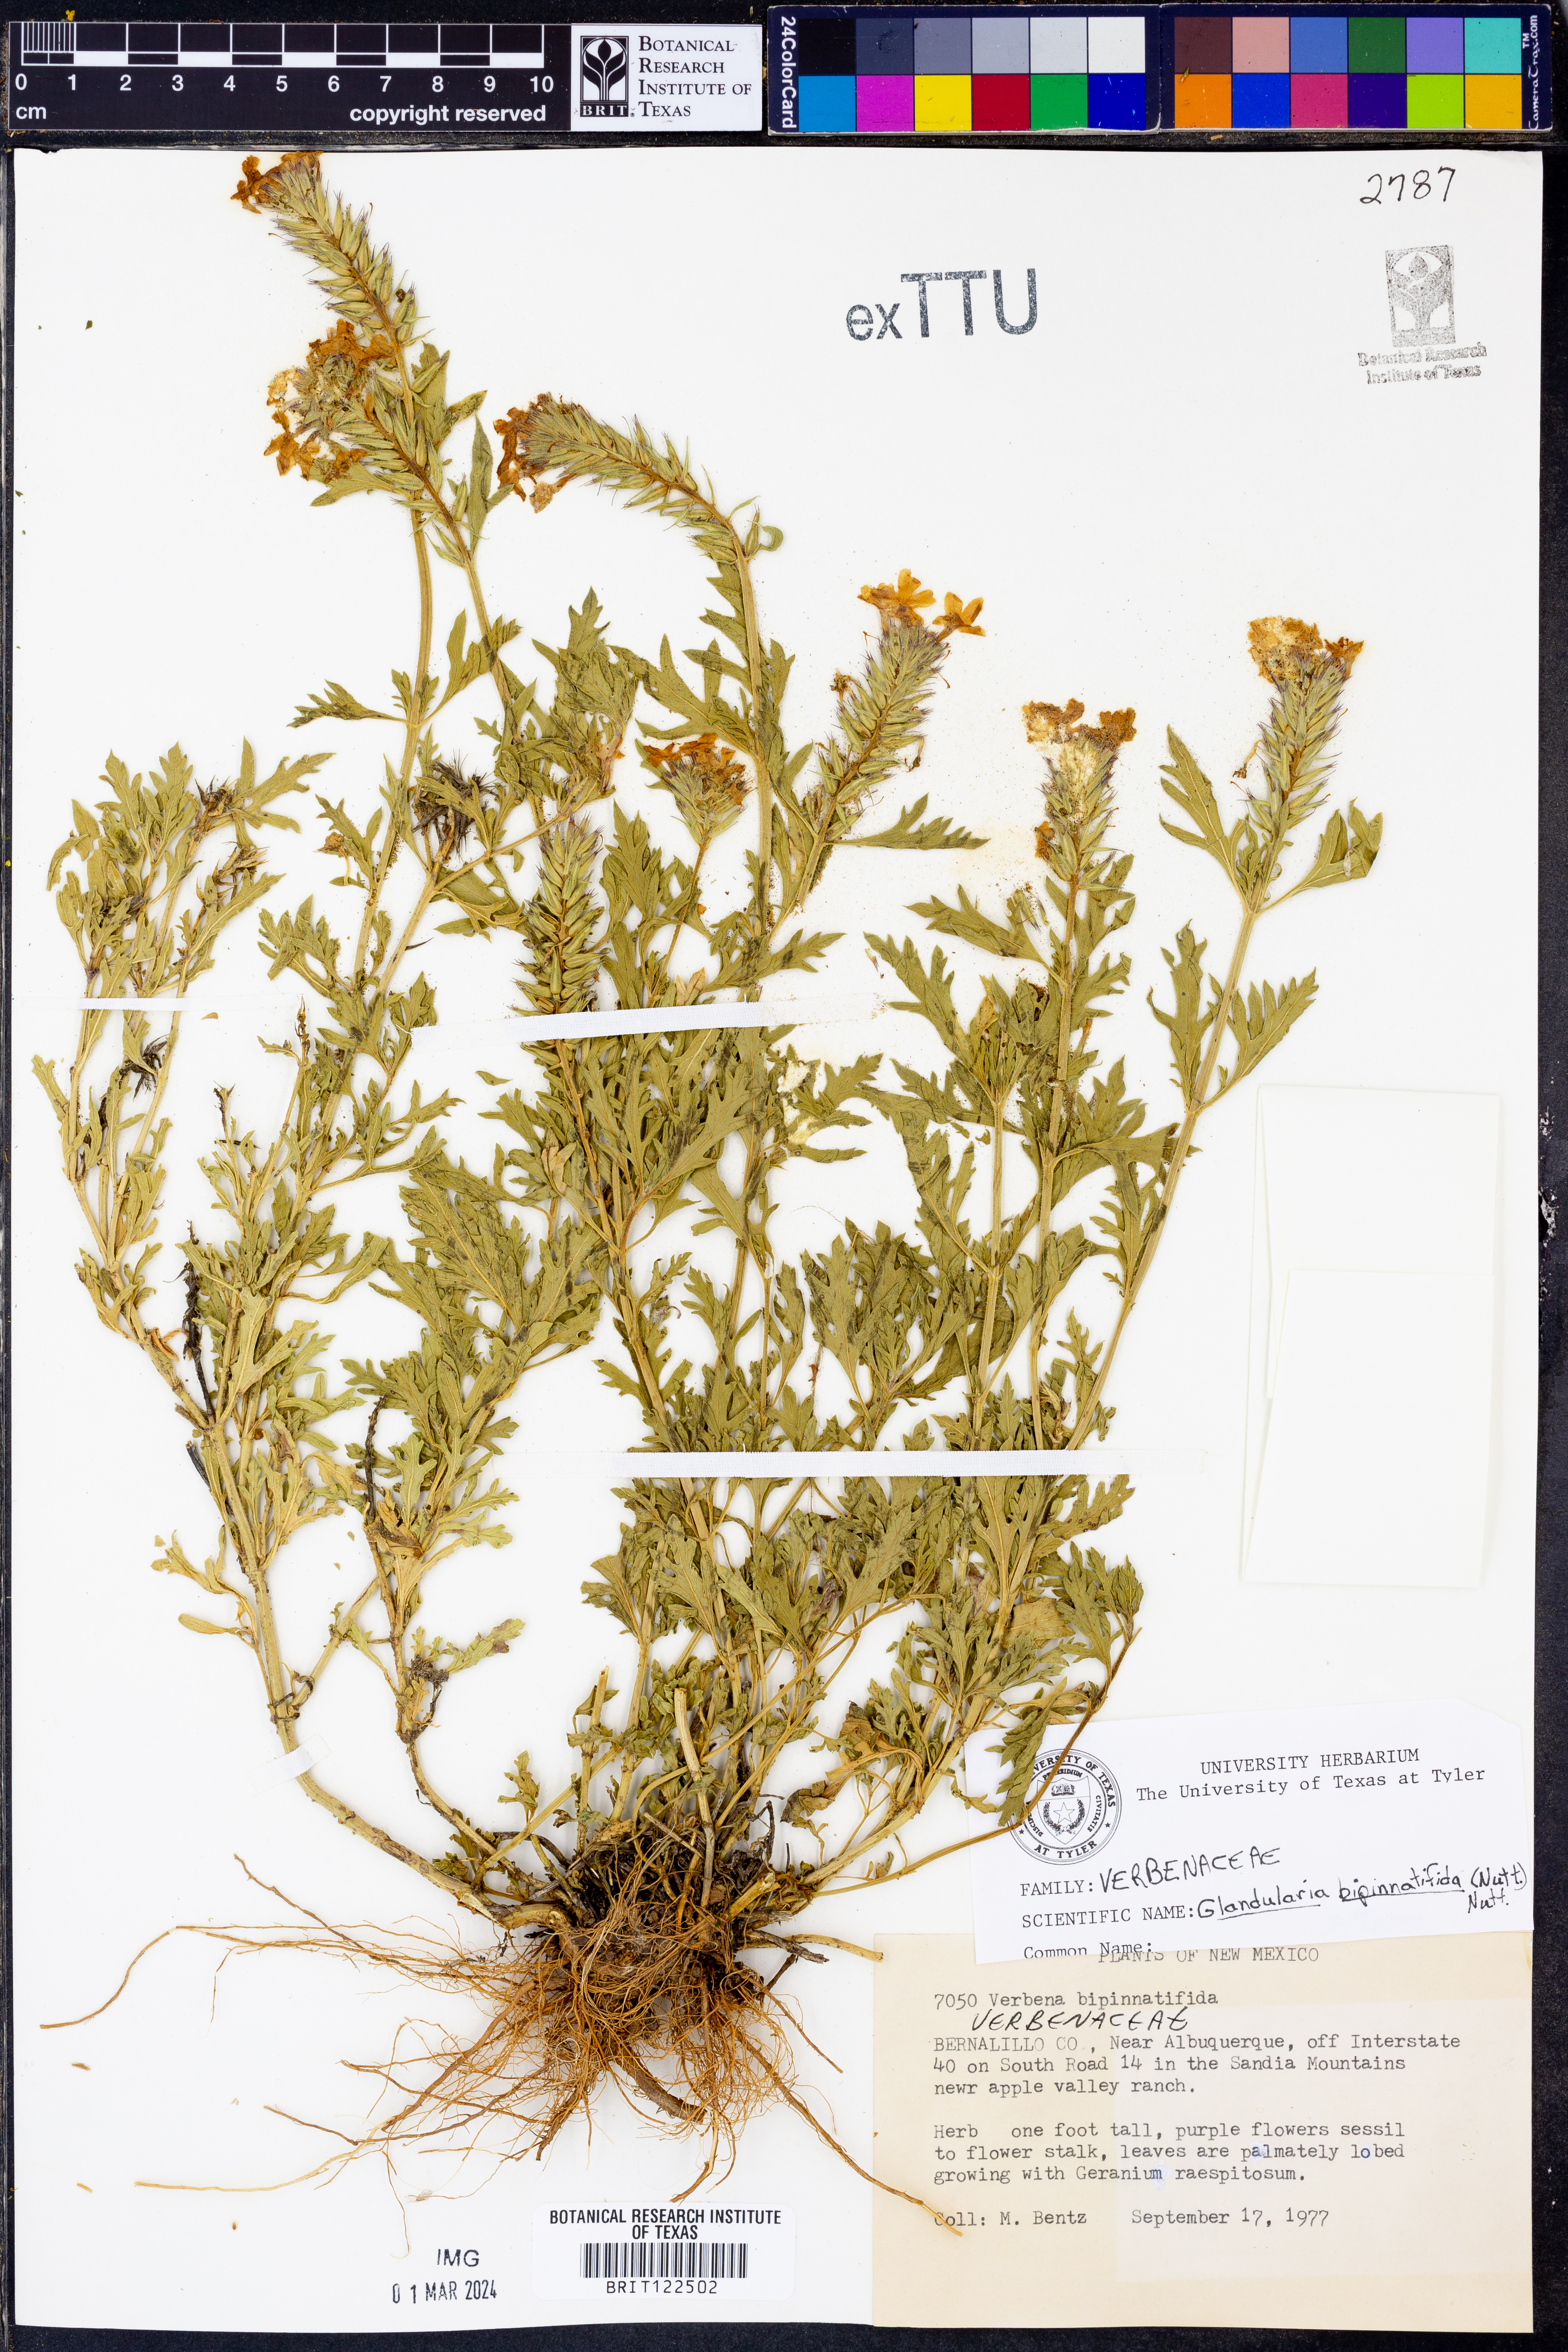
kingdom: Plantae
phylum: Tracheophyta
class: Magnoliopsida
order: Lamiales
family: Verbenaceae
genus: Verbena
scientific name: Verbena bipinnatifida
